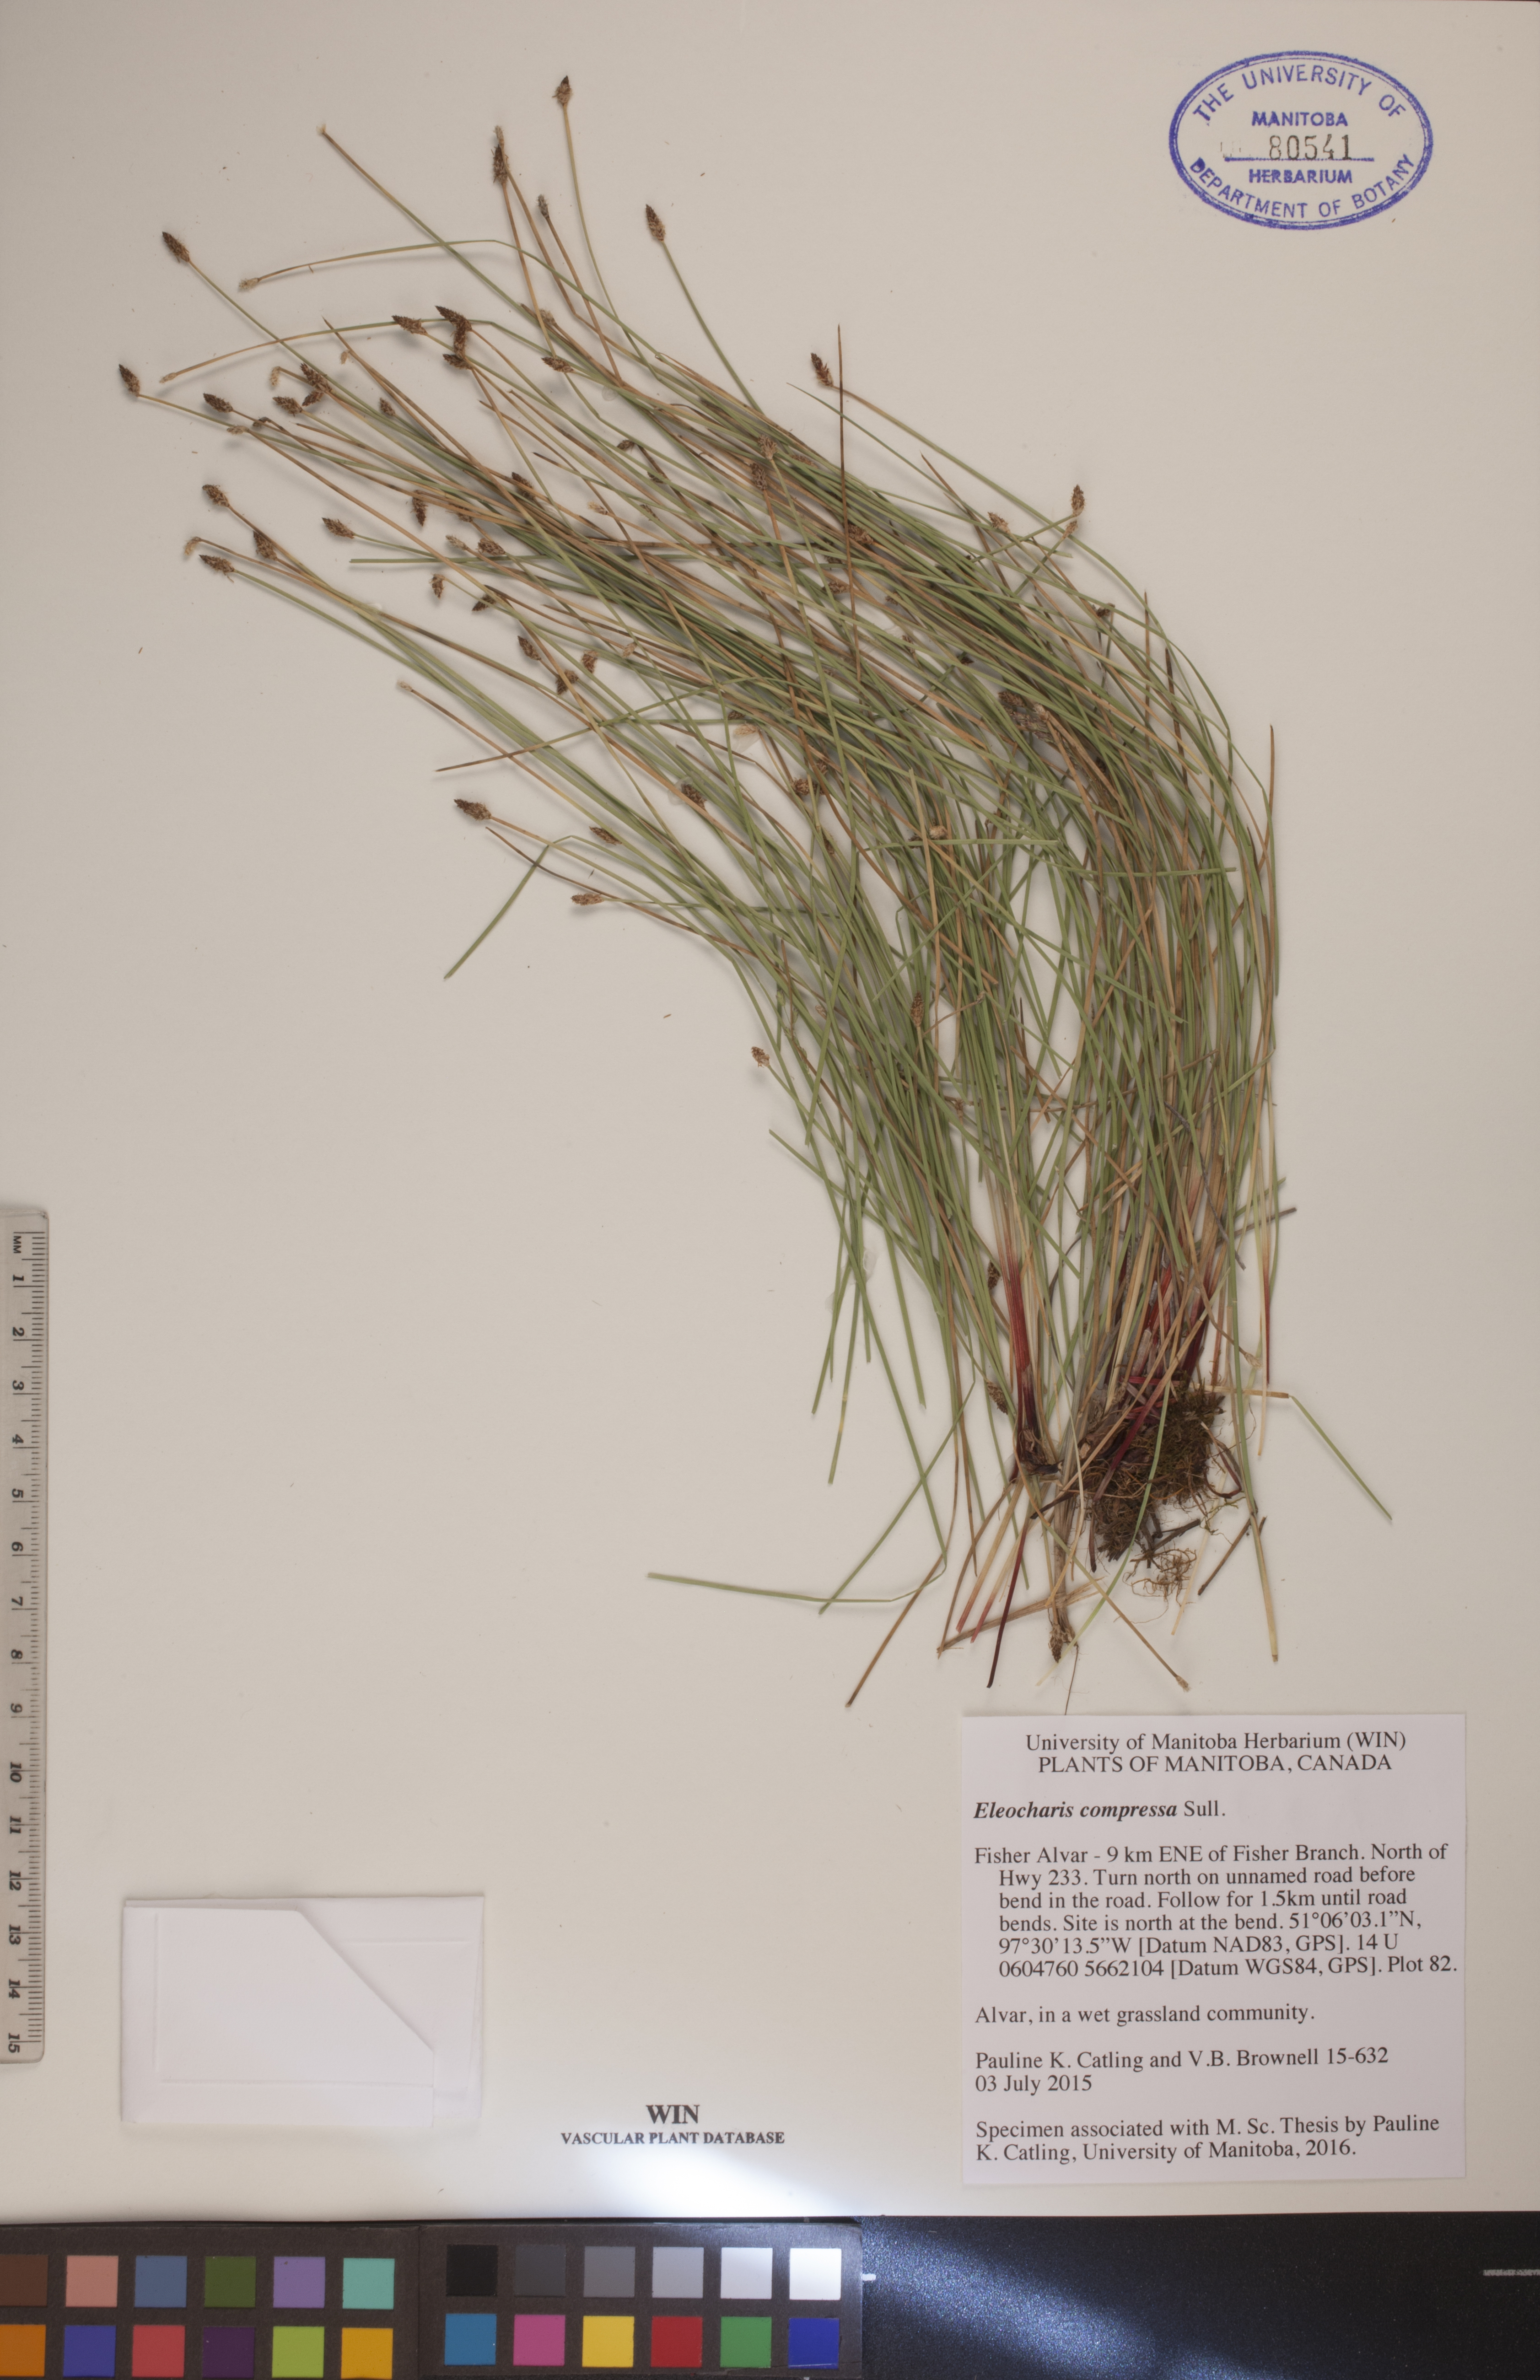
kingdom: Plantae
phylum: Tracheophyta
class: Liliopsida
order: Poales
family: Cyperaceae
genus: Eleocharis
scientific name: Eleocharis compressa
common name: Flat-stem spike-rush
